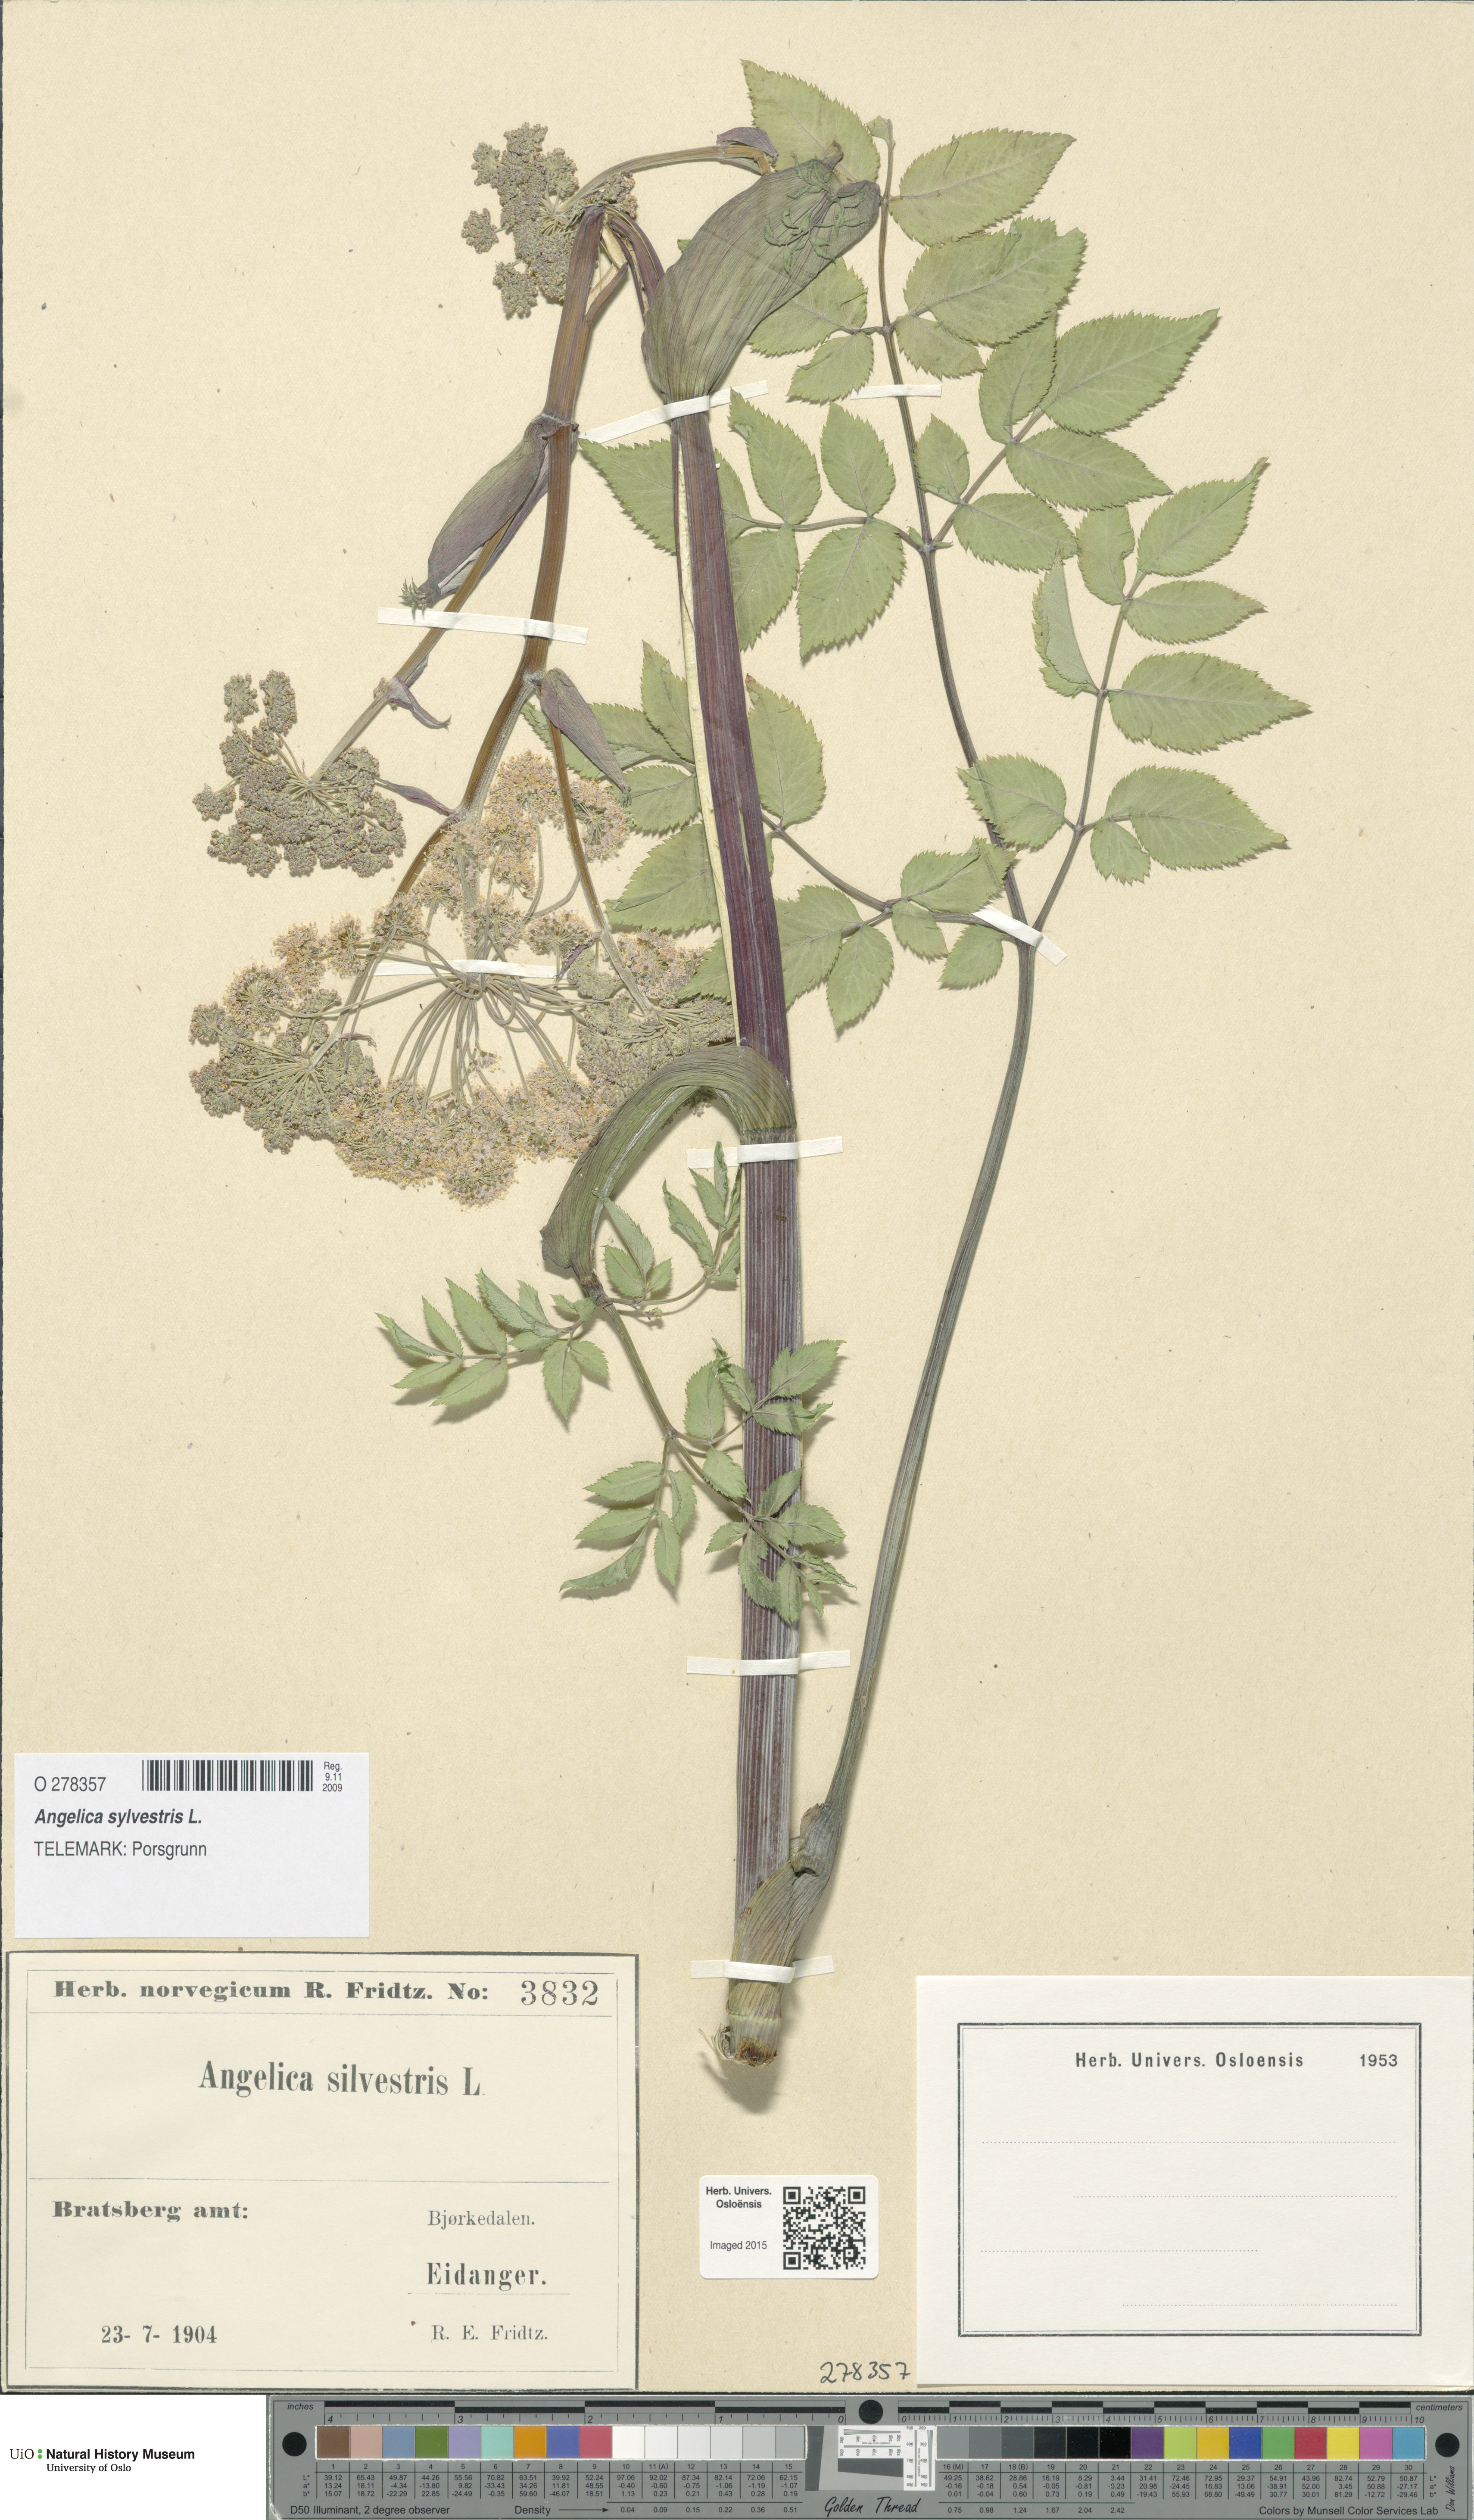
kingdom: Plantae
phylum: Tracheophyta
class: Magnoliopsida
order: Apiales
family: Apiaceae
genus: Angelica
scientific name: Angelica sylvestris
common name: Wild angelica
